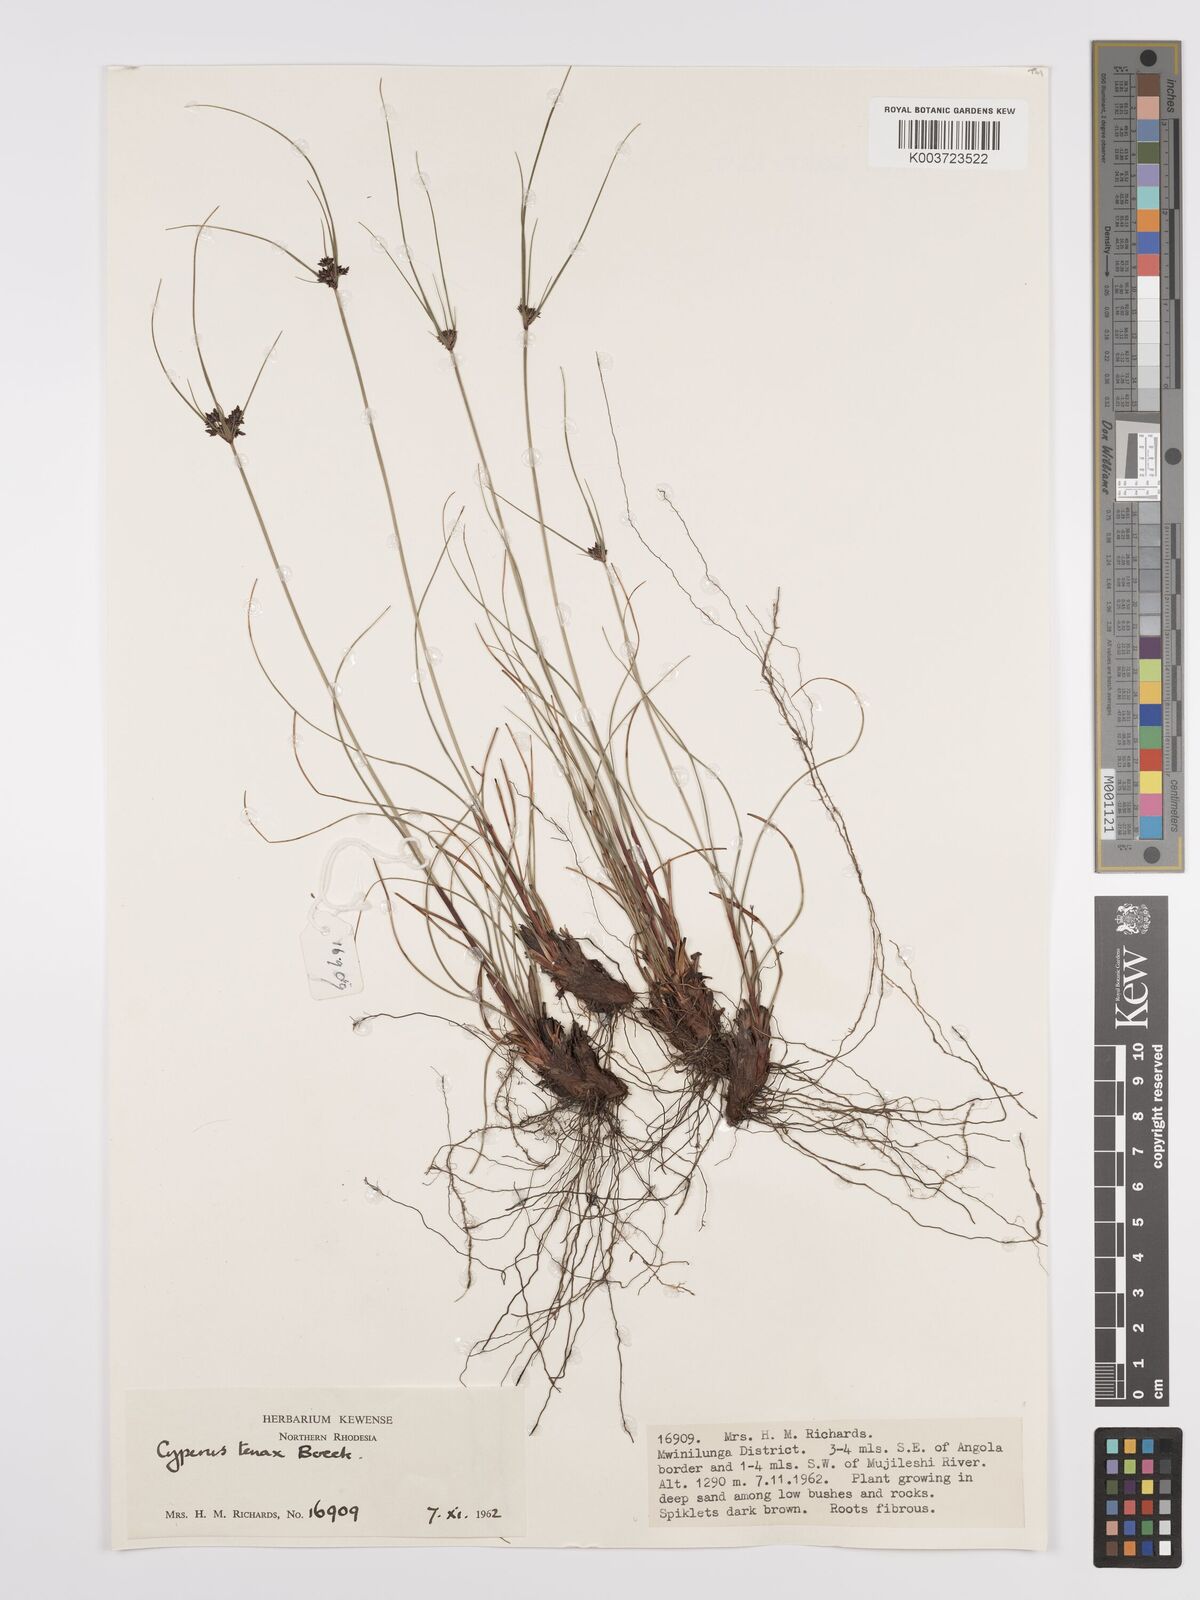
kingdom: Plantae
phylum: Tracheophyta
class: Liliopsida
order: Poales
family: Cyperaceae
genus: Cyperus
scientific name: Cyperus tenax
